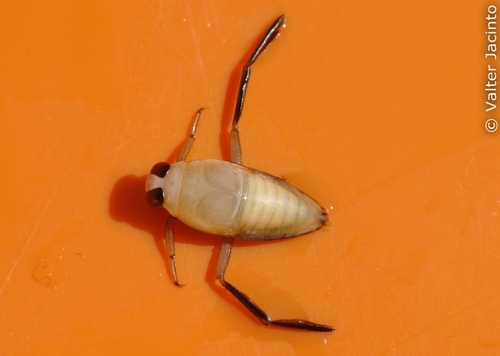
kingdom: Animalia
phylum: Arthropoda
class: Insecta
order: Hemiptera
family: Notonectidae
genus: Notonecta
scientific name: Notonecta maculata
